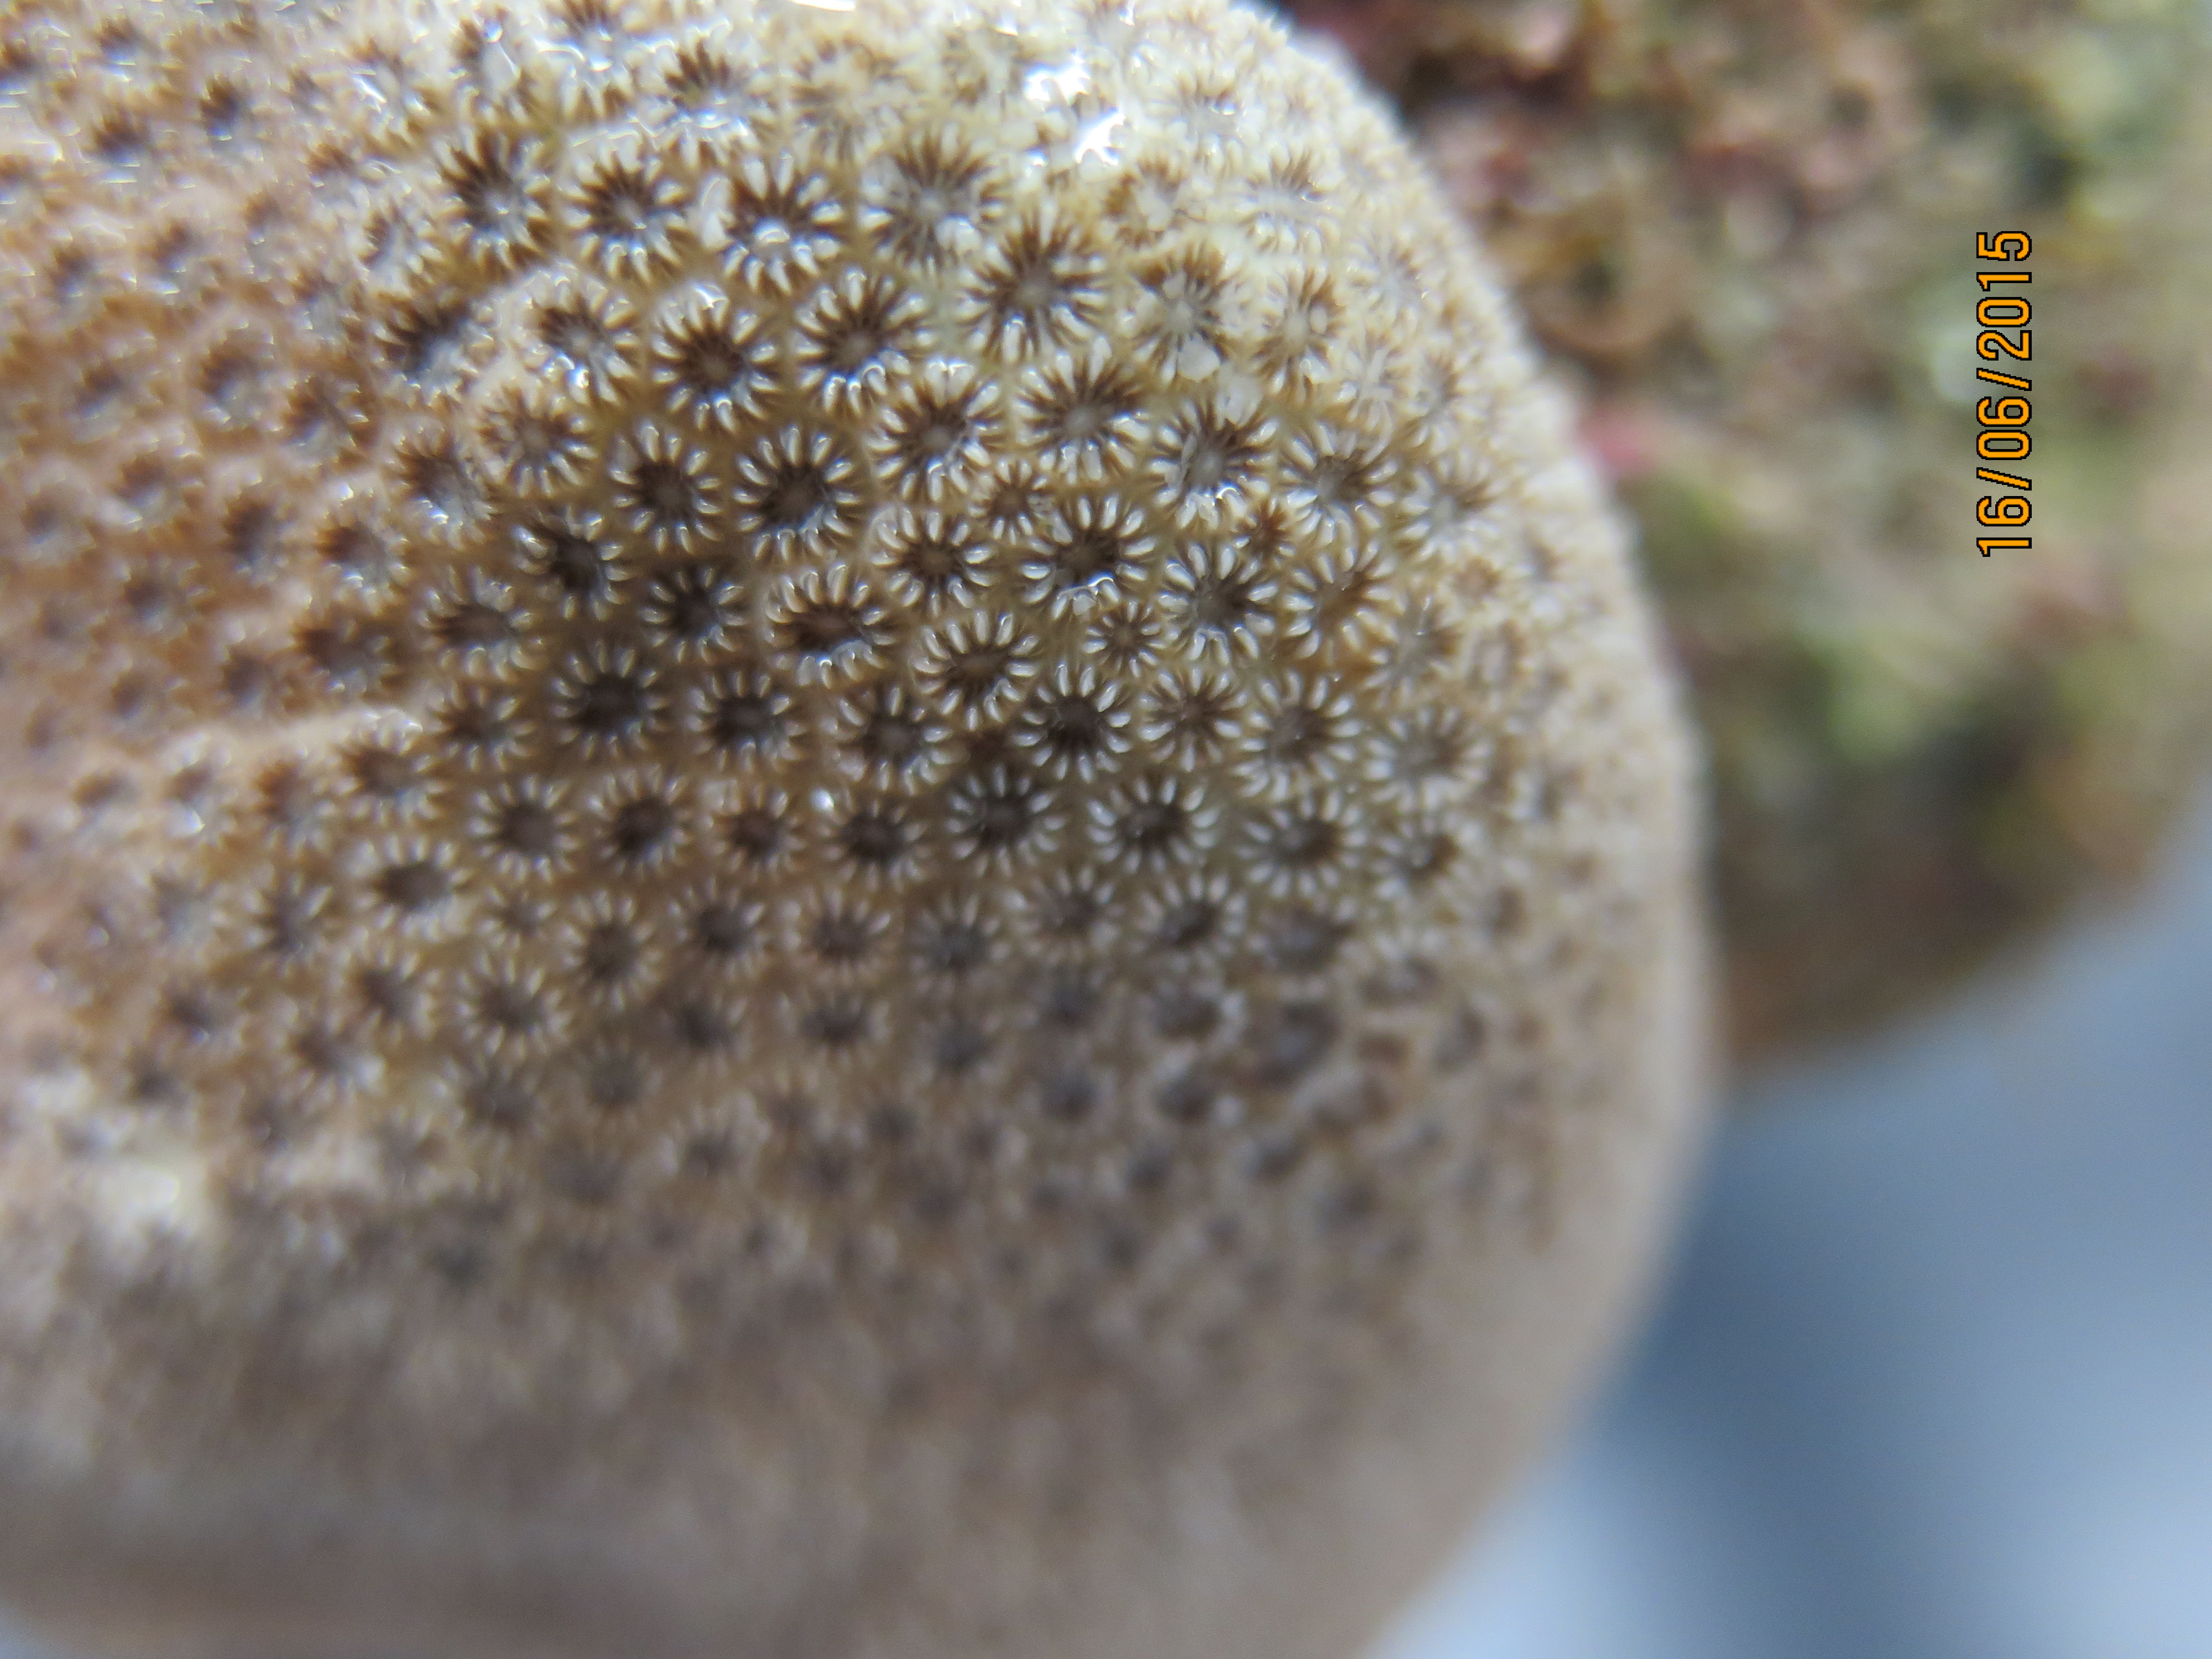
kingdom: Animalia
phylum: Cnidaria
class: Anthozoa
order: Scleractinia
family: Astrocoeniidae
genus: Stephanocoenia
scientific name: Stephanocoenia intersepta
